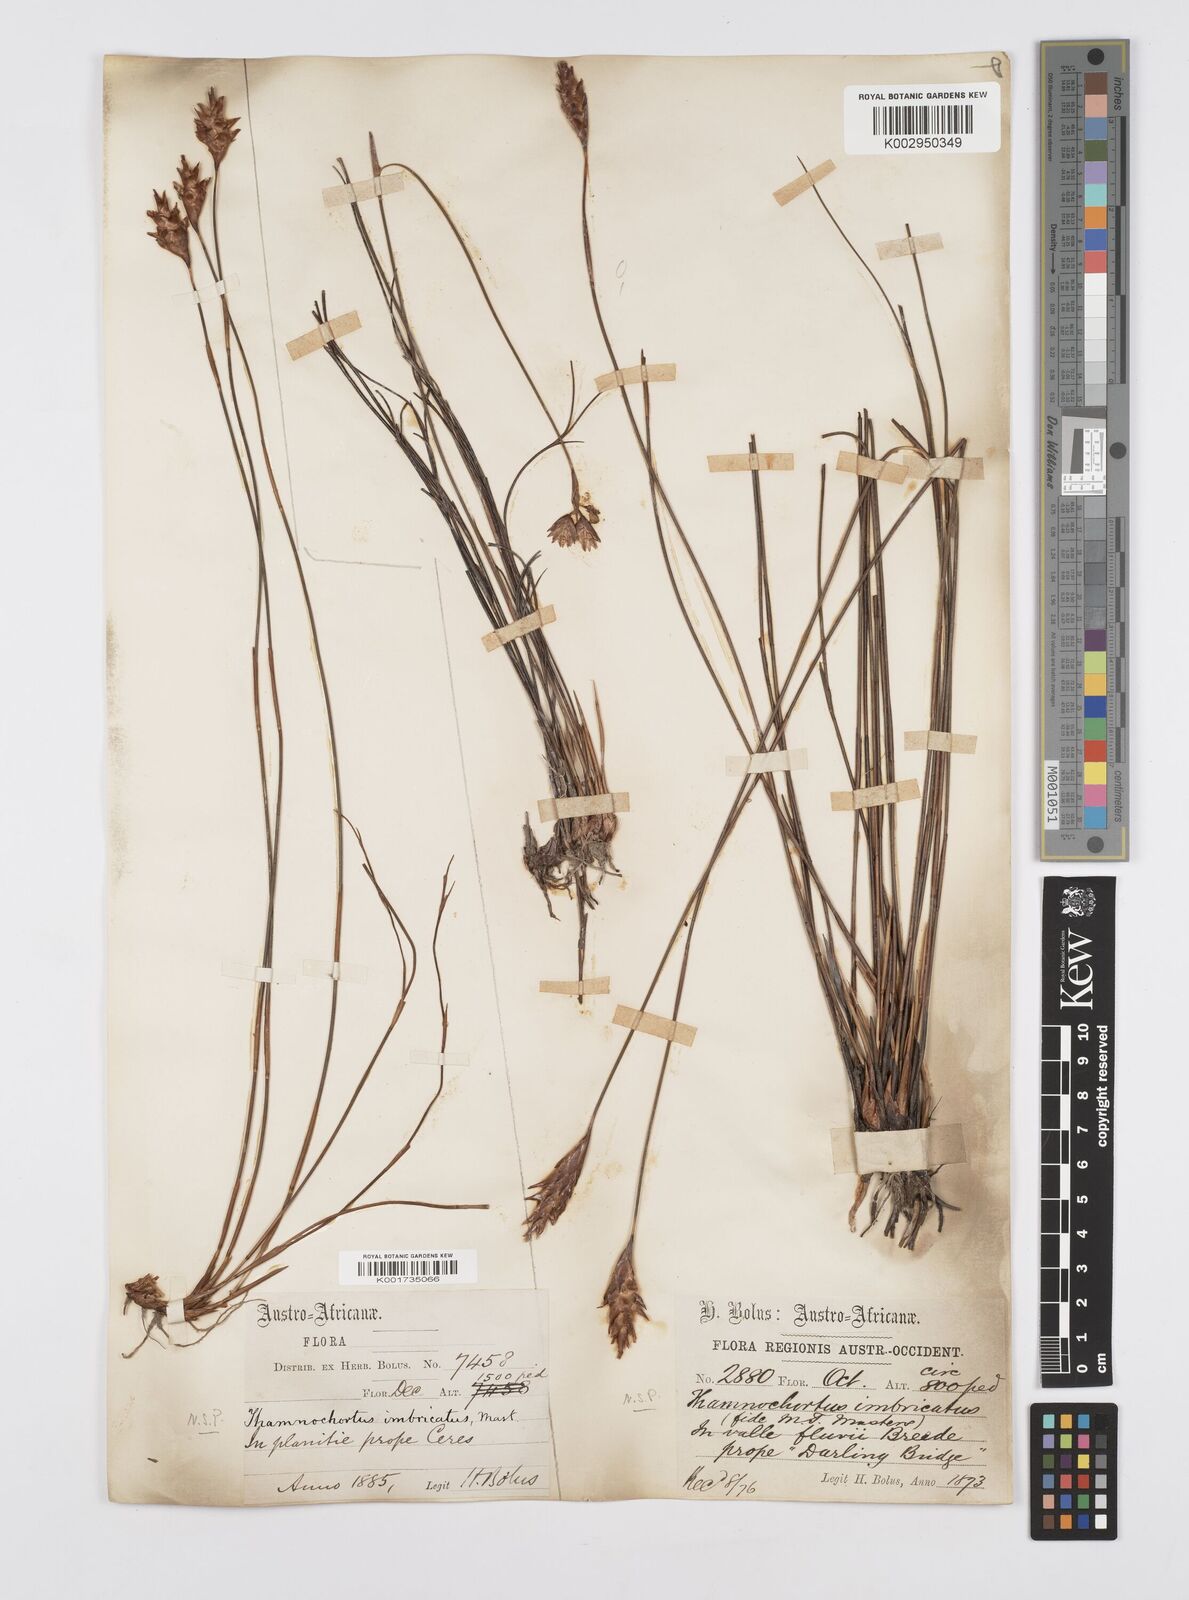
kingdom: Plantae
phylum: Tracheophyta
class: Liliopsida
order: Poales
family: Restionaceae
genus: Staberoha
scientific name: Staberoha distachyos
